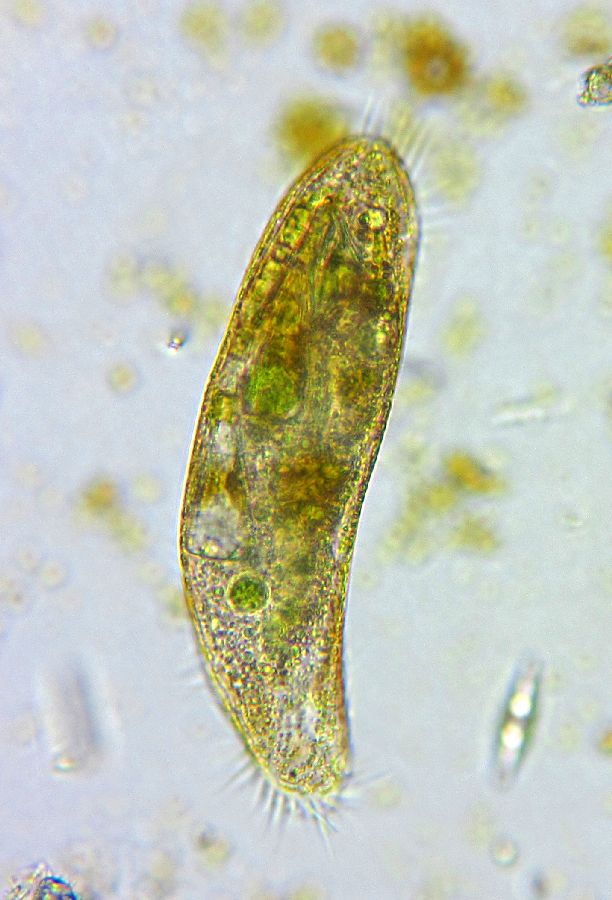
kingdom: Chromista
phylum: Ciliophora
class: Hypotrichea
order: Oxytrichida
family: Oxytrichidae
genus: Rubrioxytricha
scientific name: Rubrioxytricha haematoplasma
